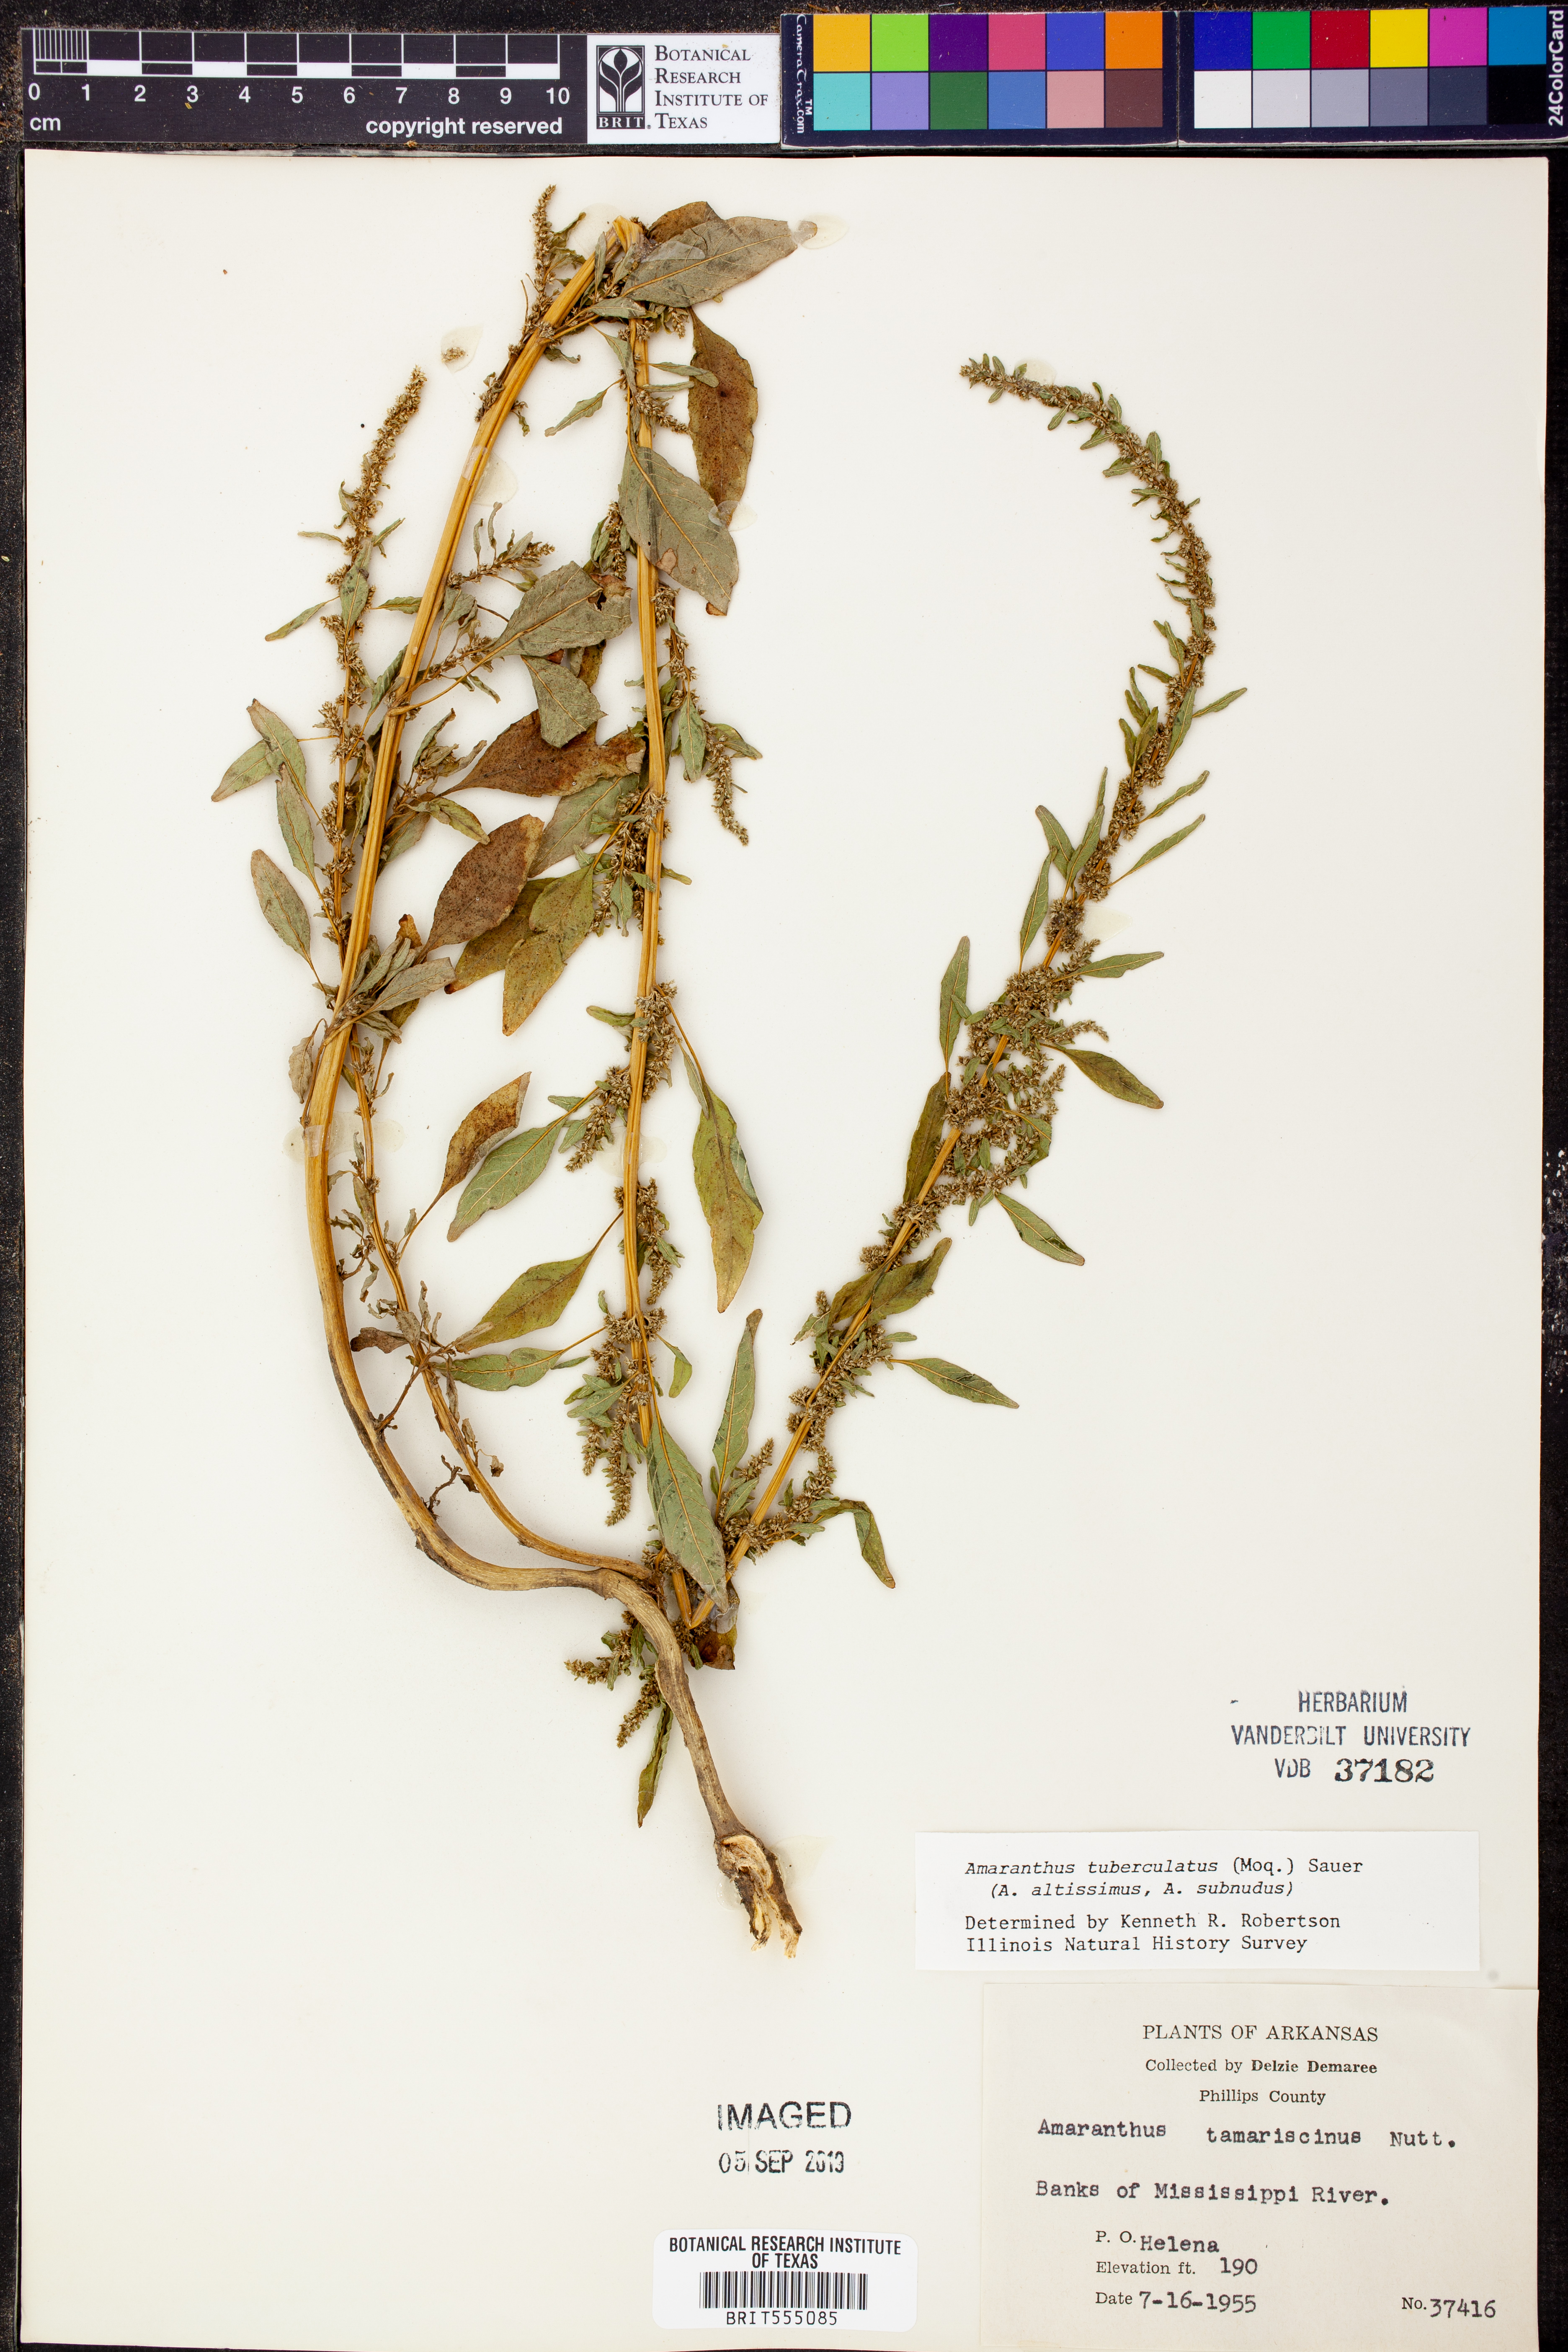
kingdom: Plantae
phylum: Tracheophyta
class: Magnoliopsida
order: Caryophyllales
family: Amaranthaceae
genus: Amaranthus
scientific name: Amaranthus tuberculatus
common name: Rough-fruit amaranth
